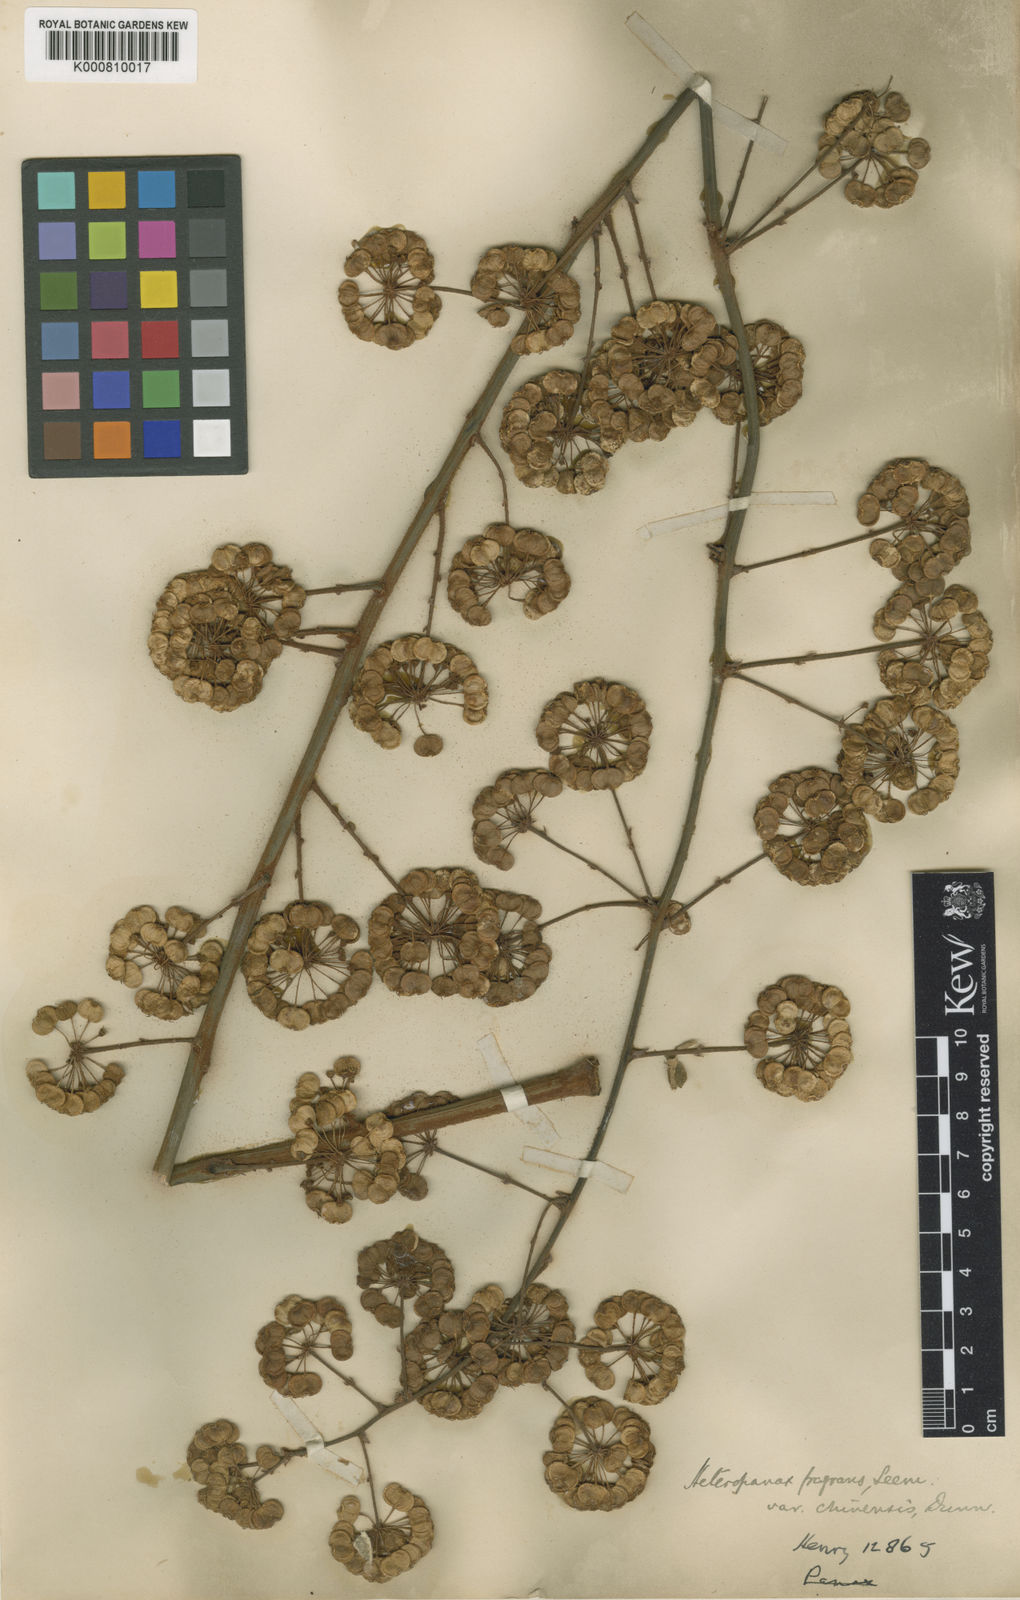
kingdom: Plantae
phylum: Tracheophyta
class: Magnoliopsida
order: Apiales
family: Araliaceae
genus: Heteropanax
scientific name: Heteropanax chinensis
